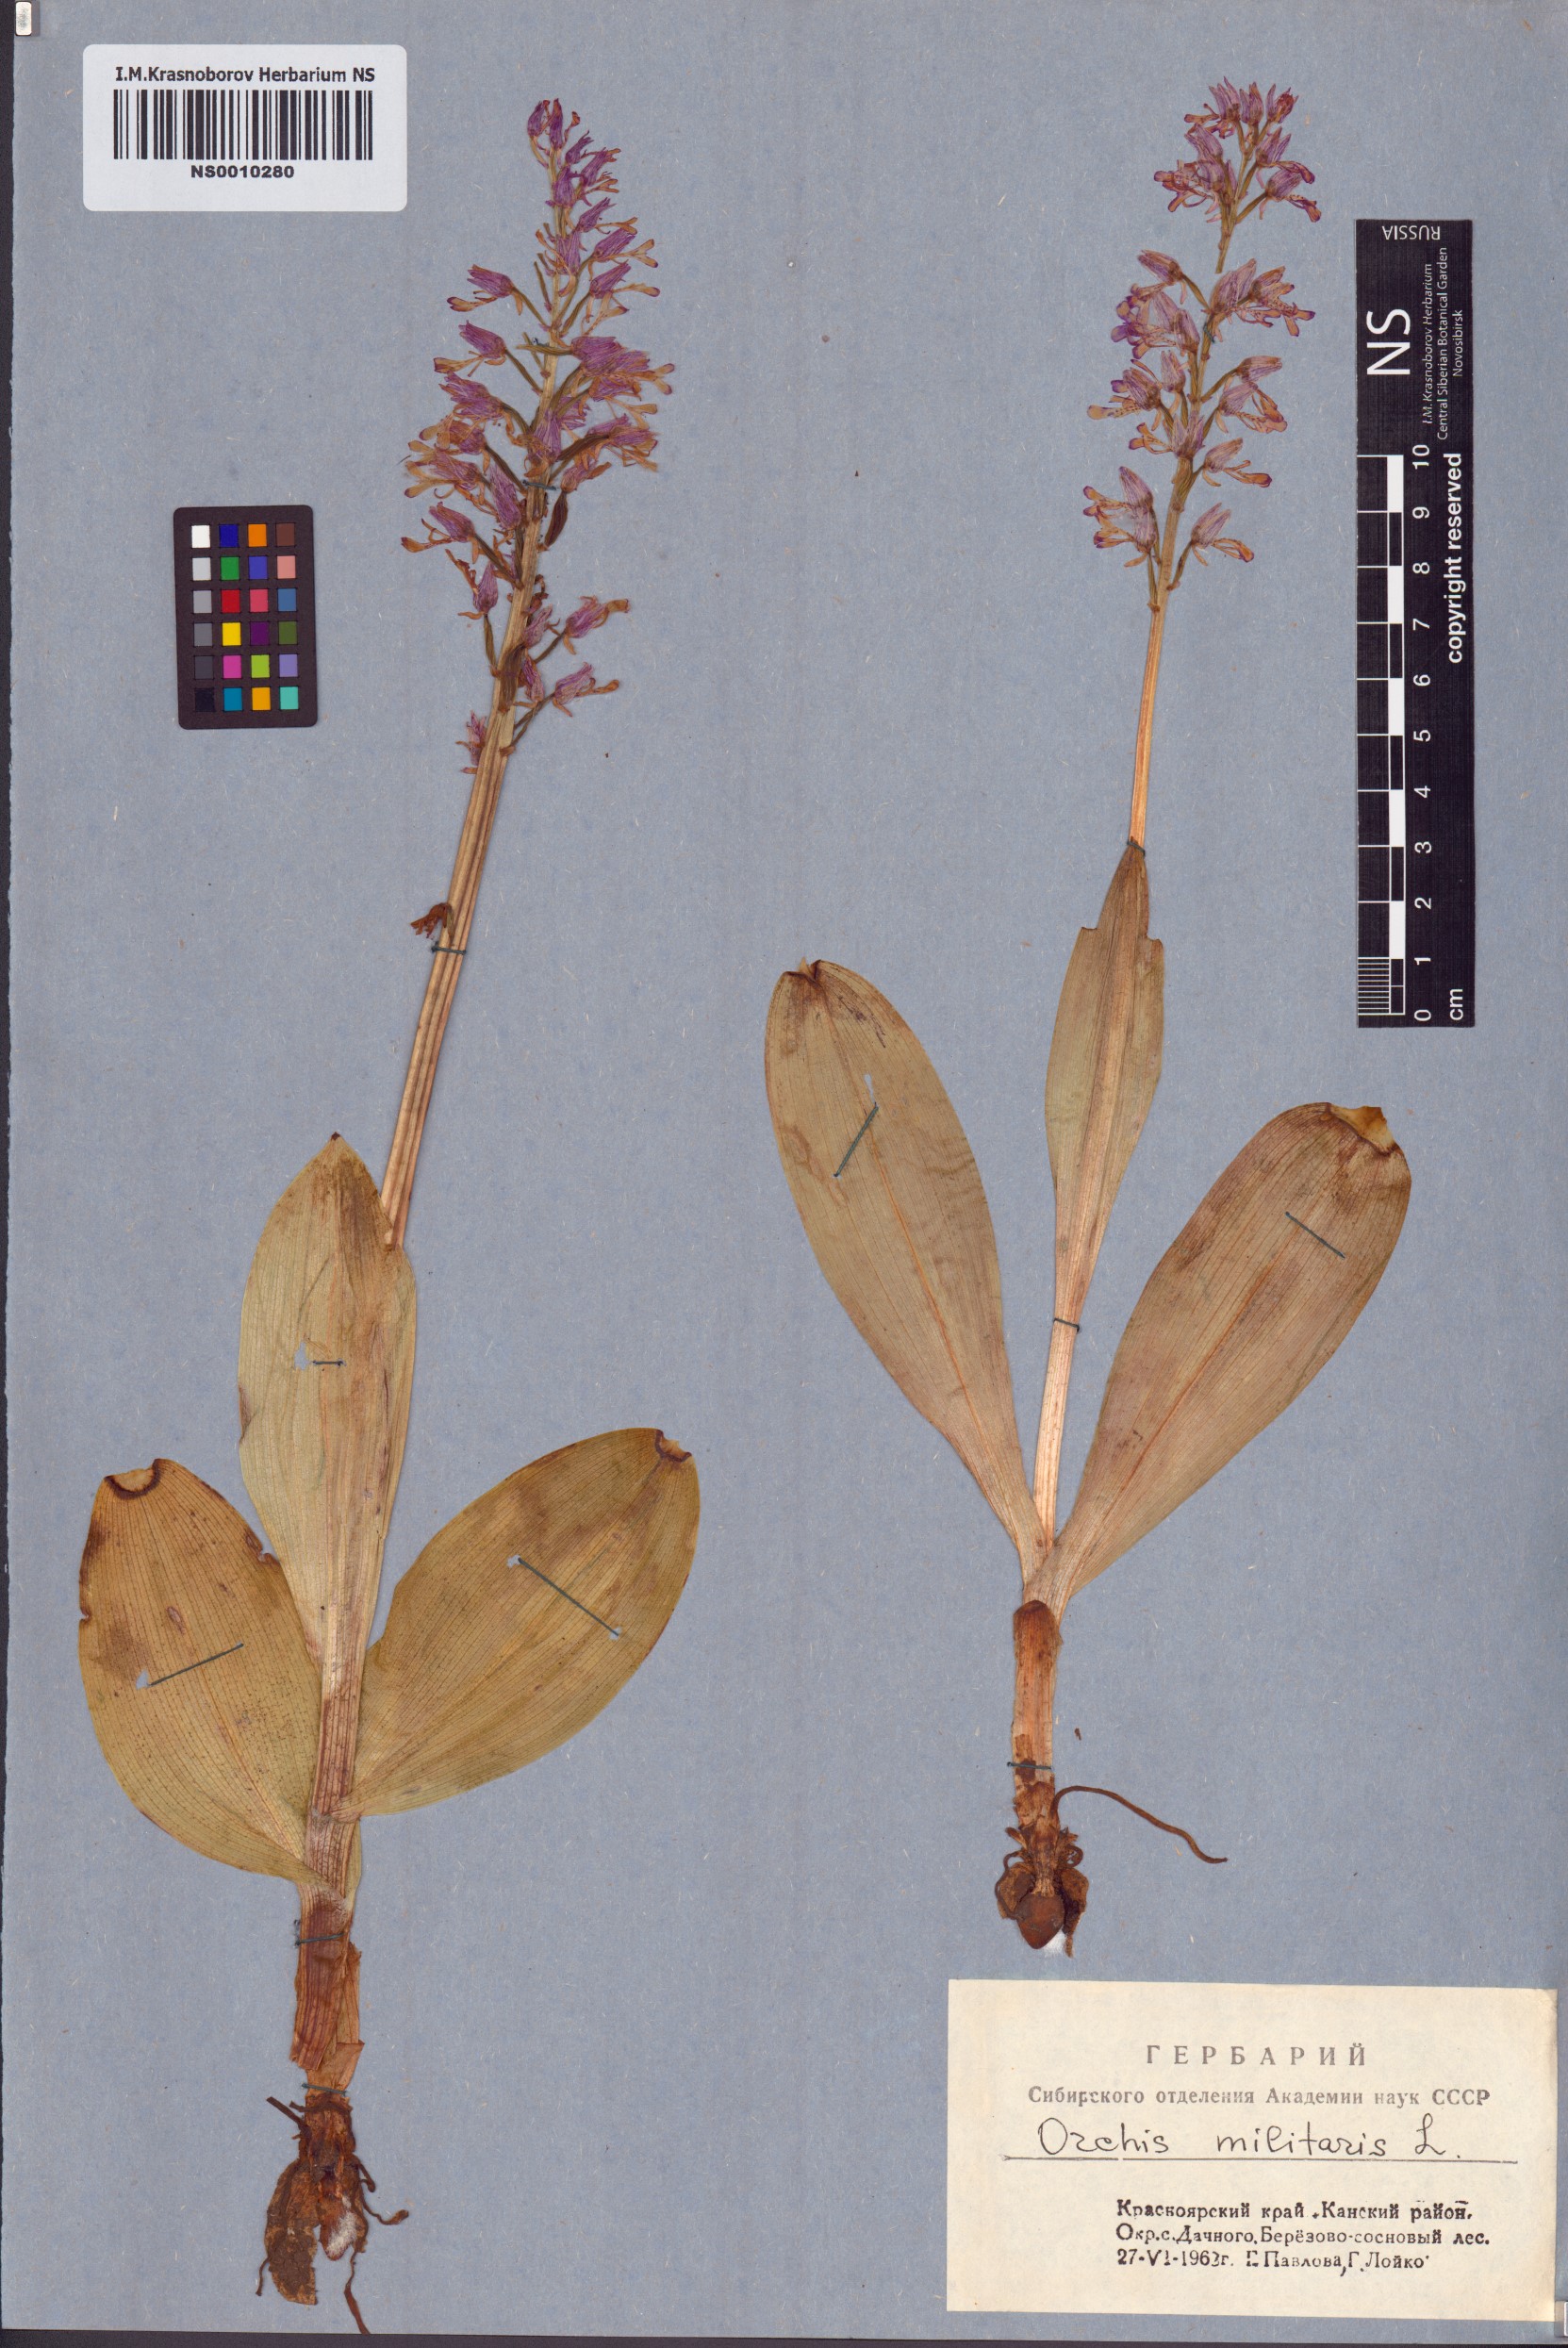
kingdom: Plantae
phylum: Tracheophyta
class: Liliopsida
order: Asparagales
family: Orchidaceae
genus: Orchis
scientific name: Orchis militaris
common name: Military orchid
